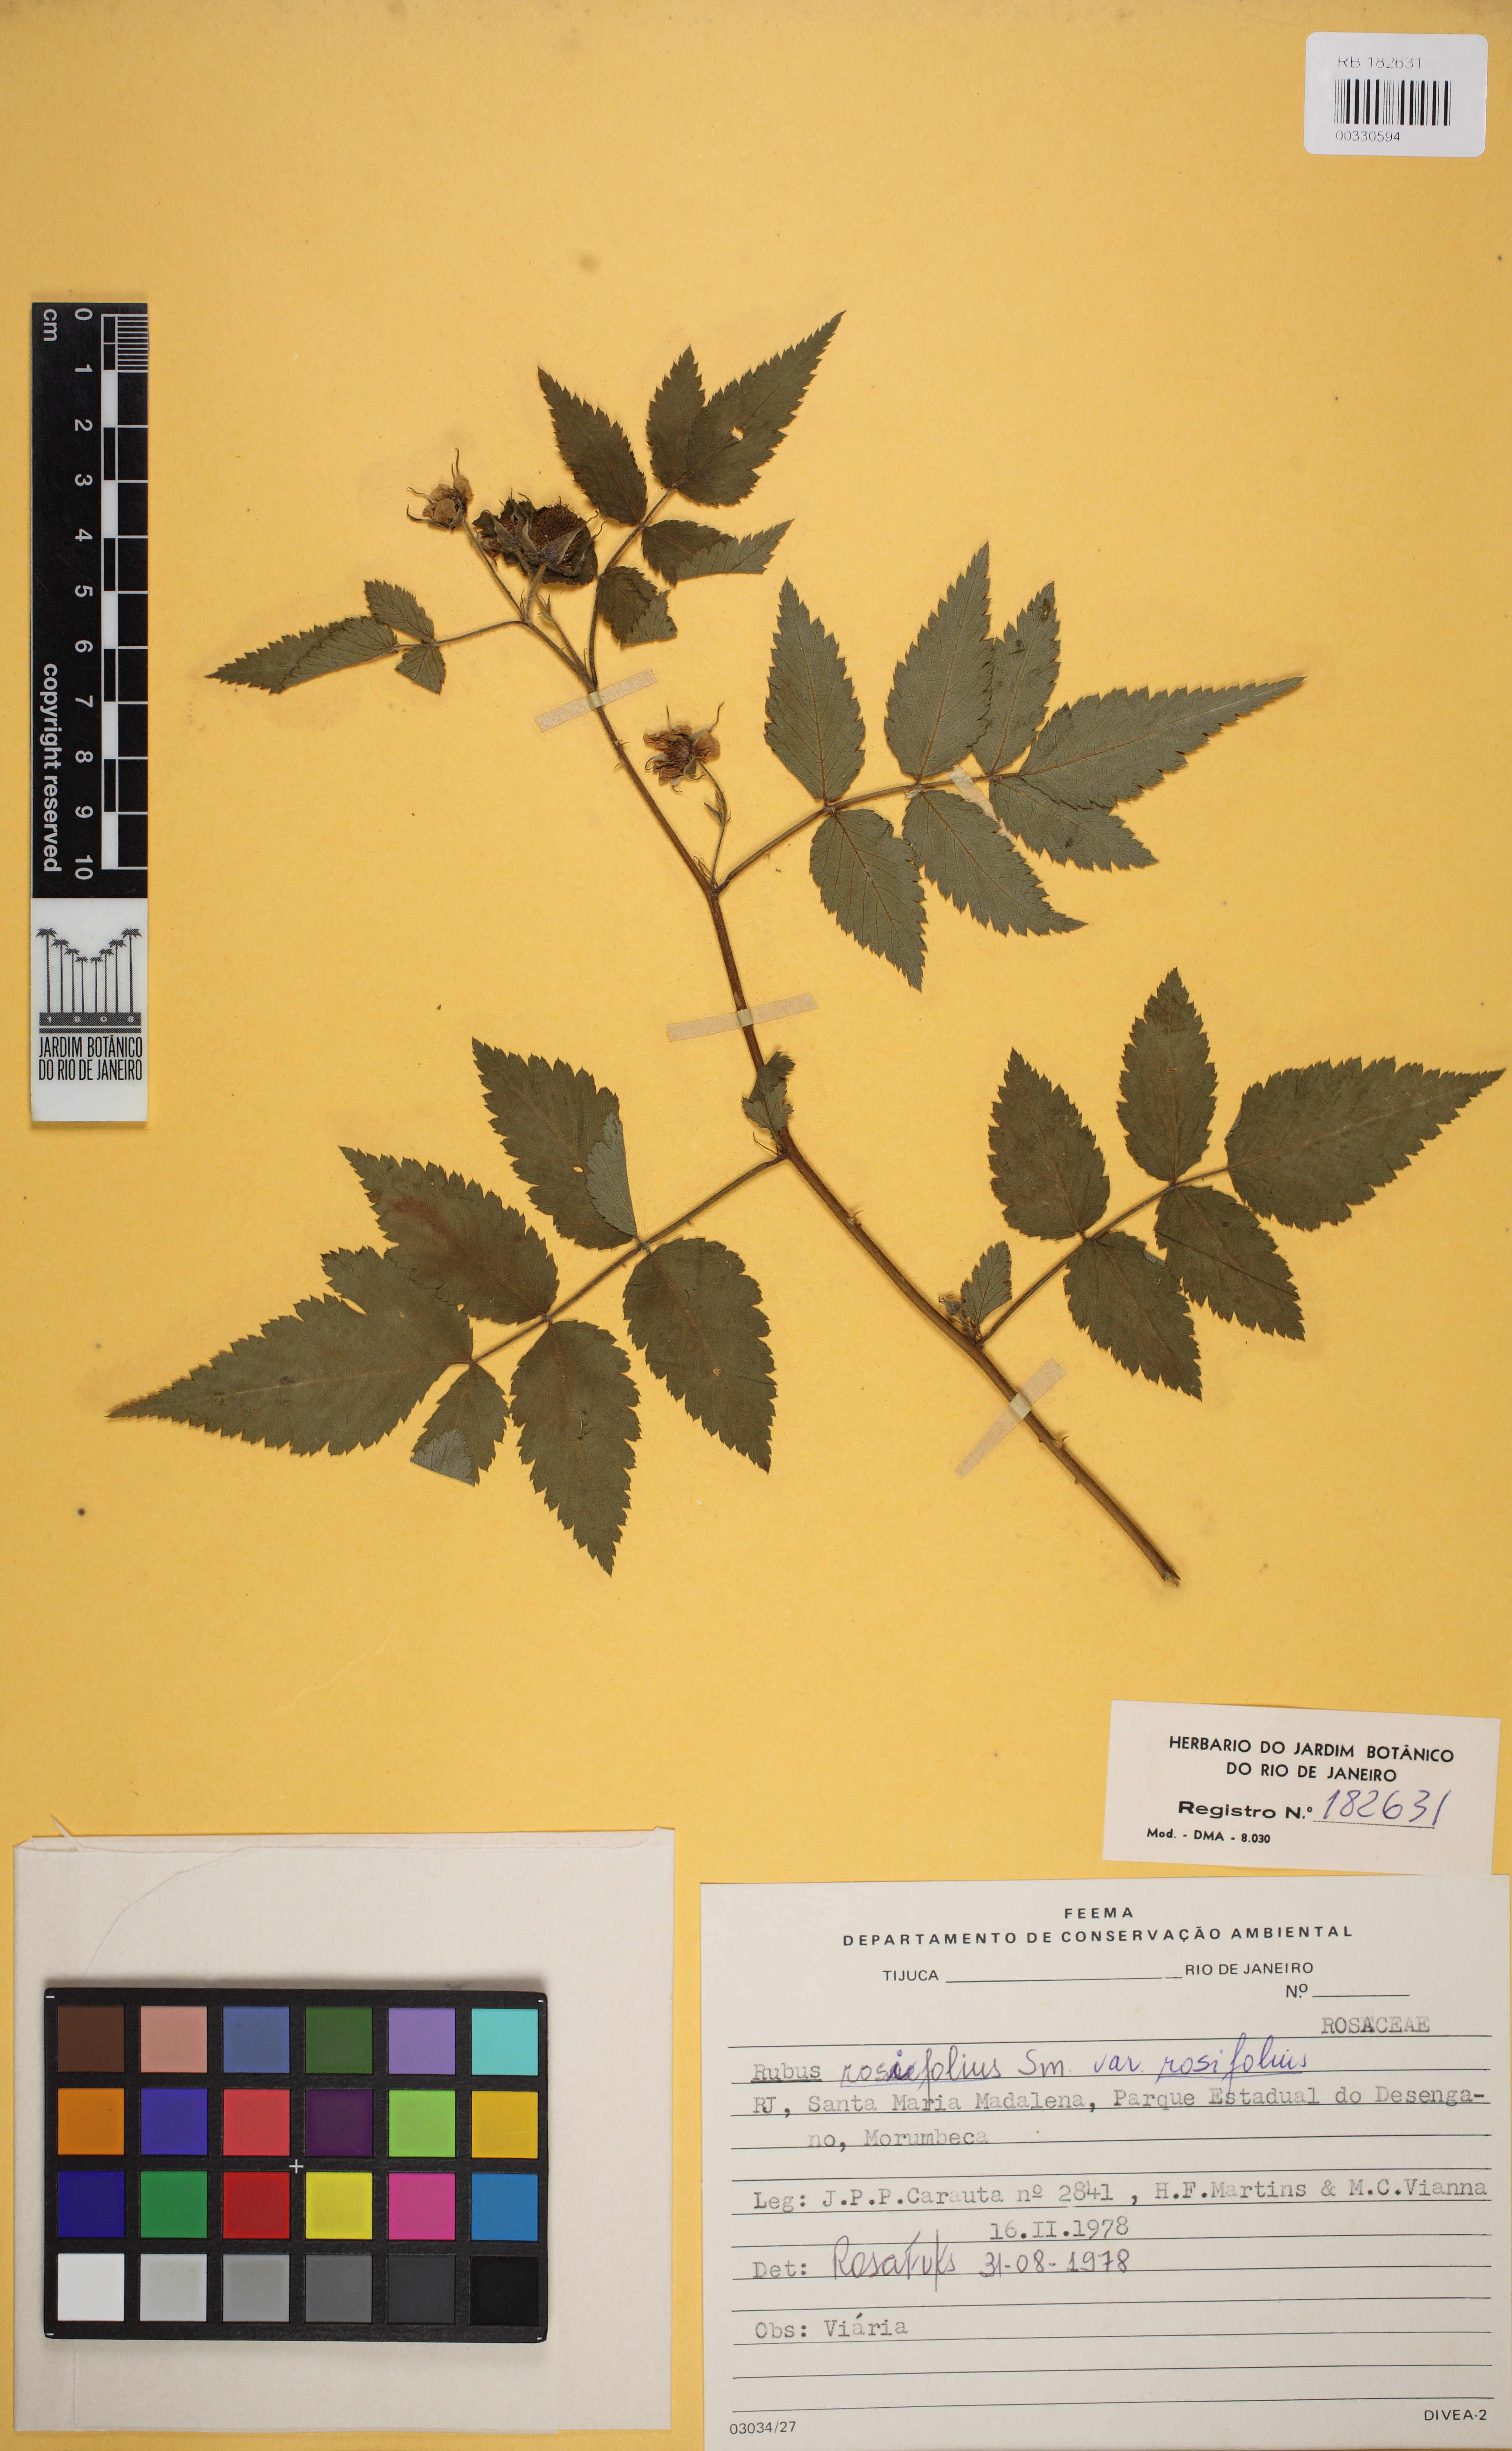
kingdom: Plantae
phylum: Tracheophyta
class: Magnoliopsida
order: Rosales
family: Rosaceae
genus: Rubus
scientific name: Rubus rosifolius
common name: Roseleaf raspberry
